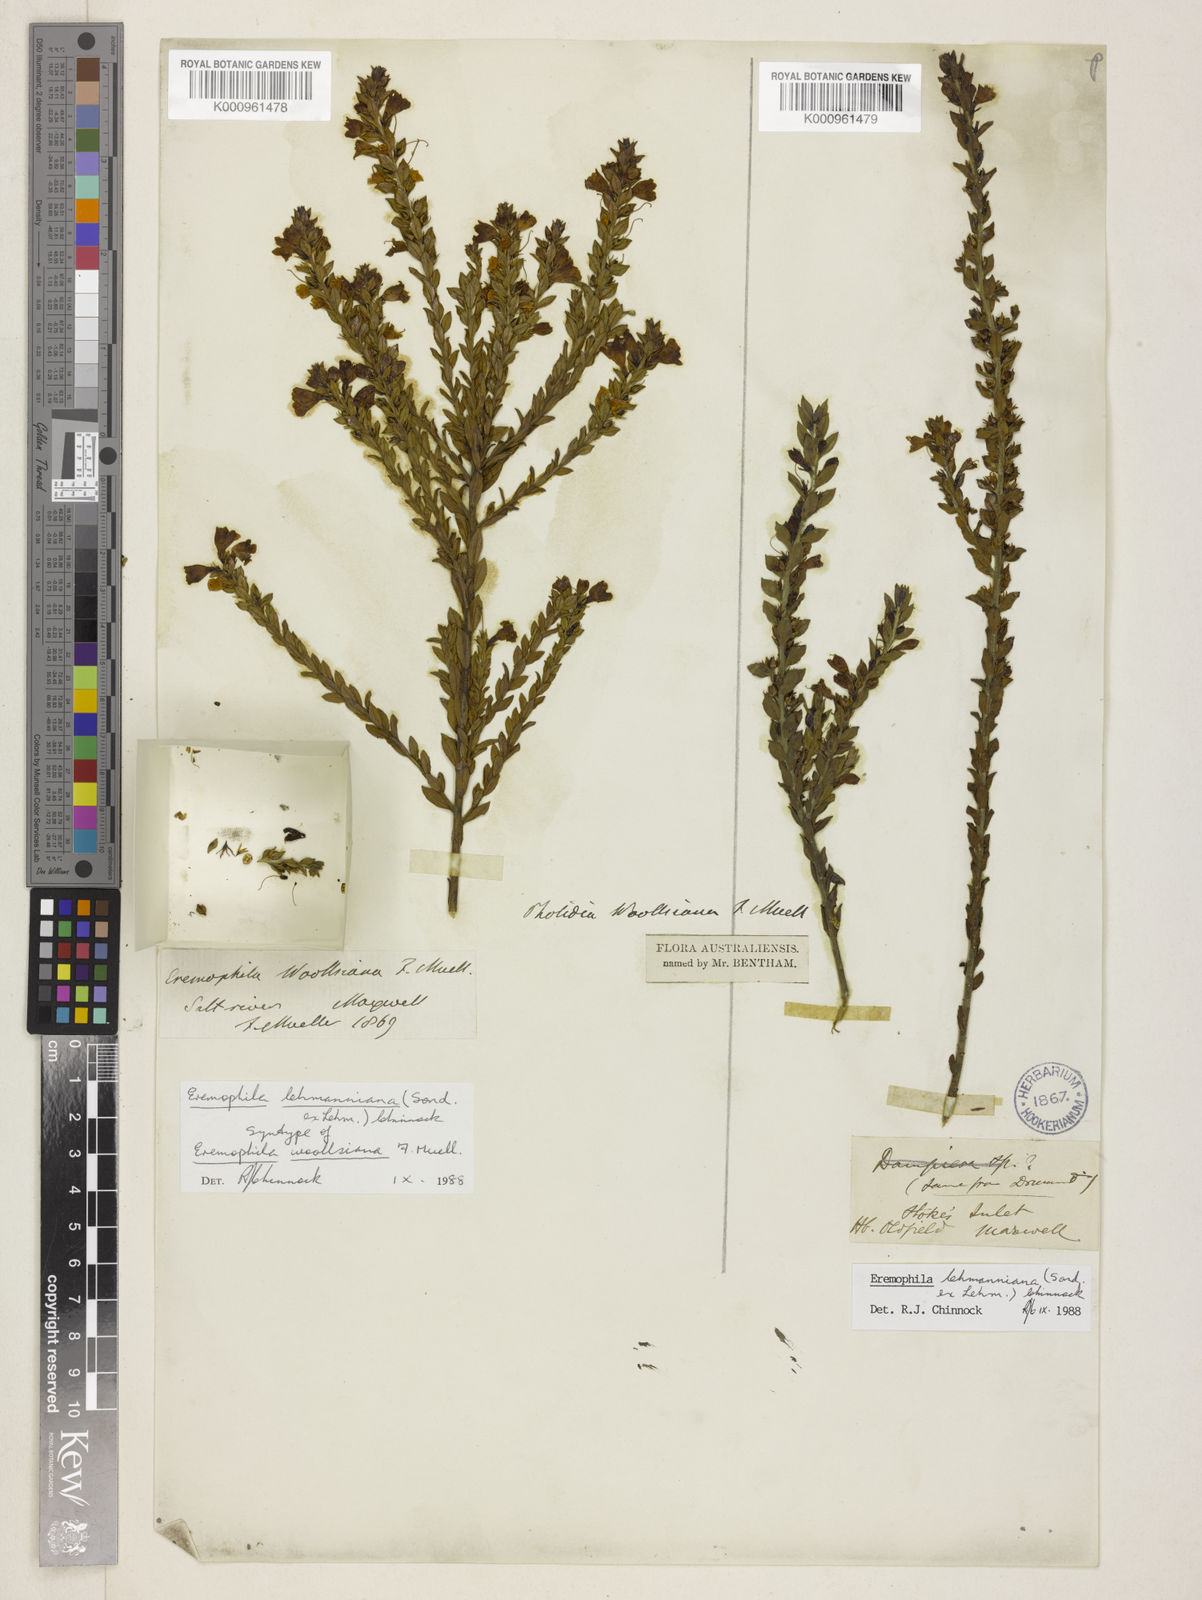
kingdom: Plantae
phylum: Tracheophyta
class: Magnoliopsida
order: Lamiales
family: Scrophulariaceae
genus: Eremophila
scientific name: Eremophila lehmanniana
